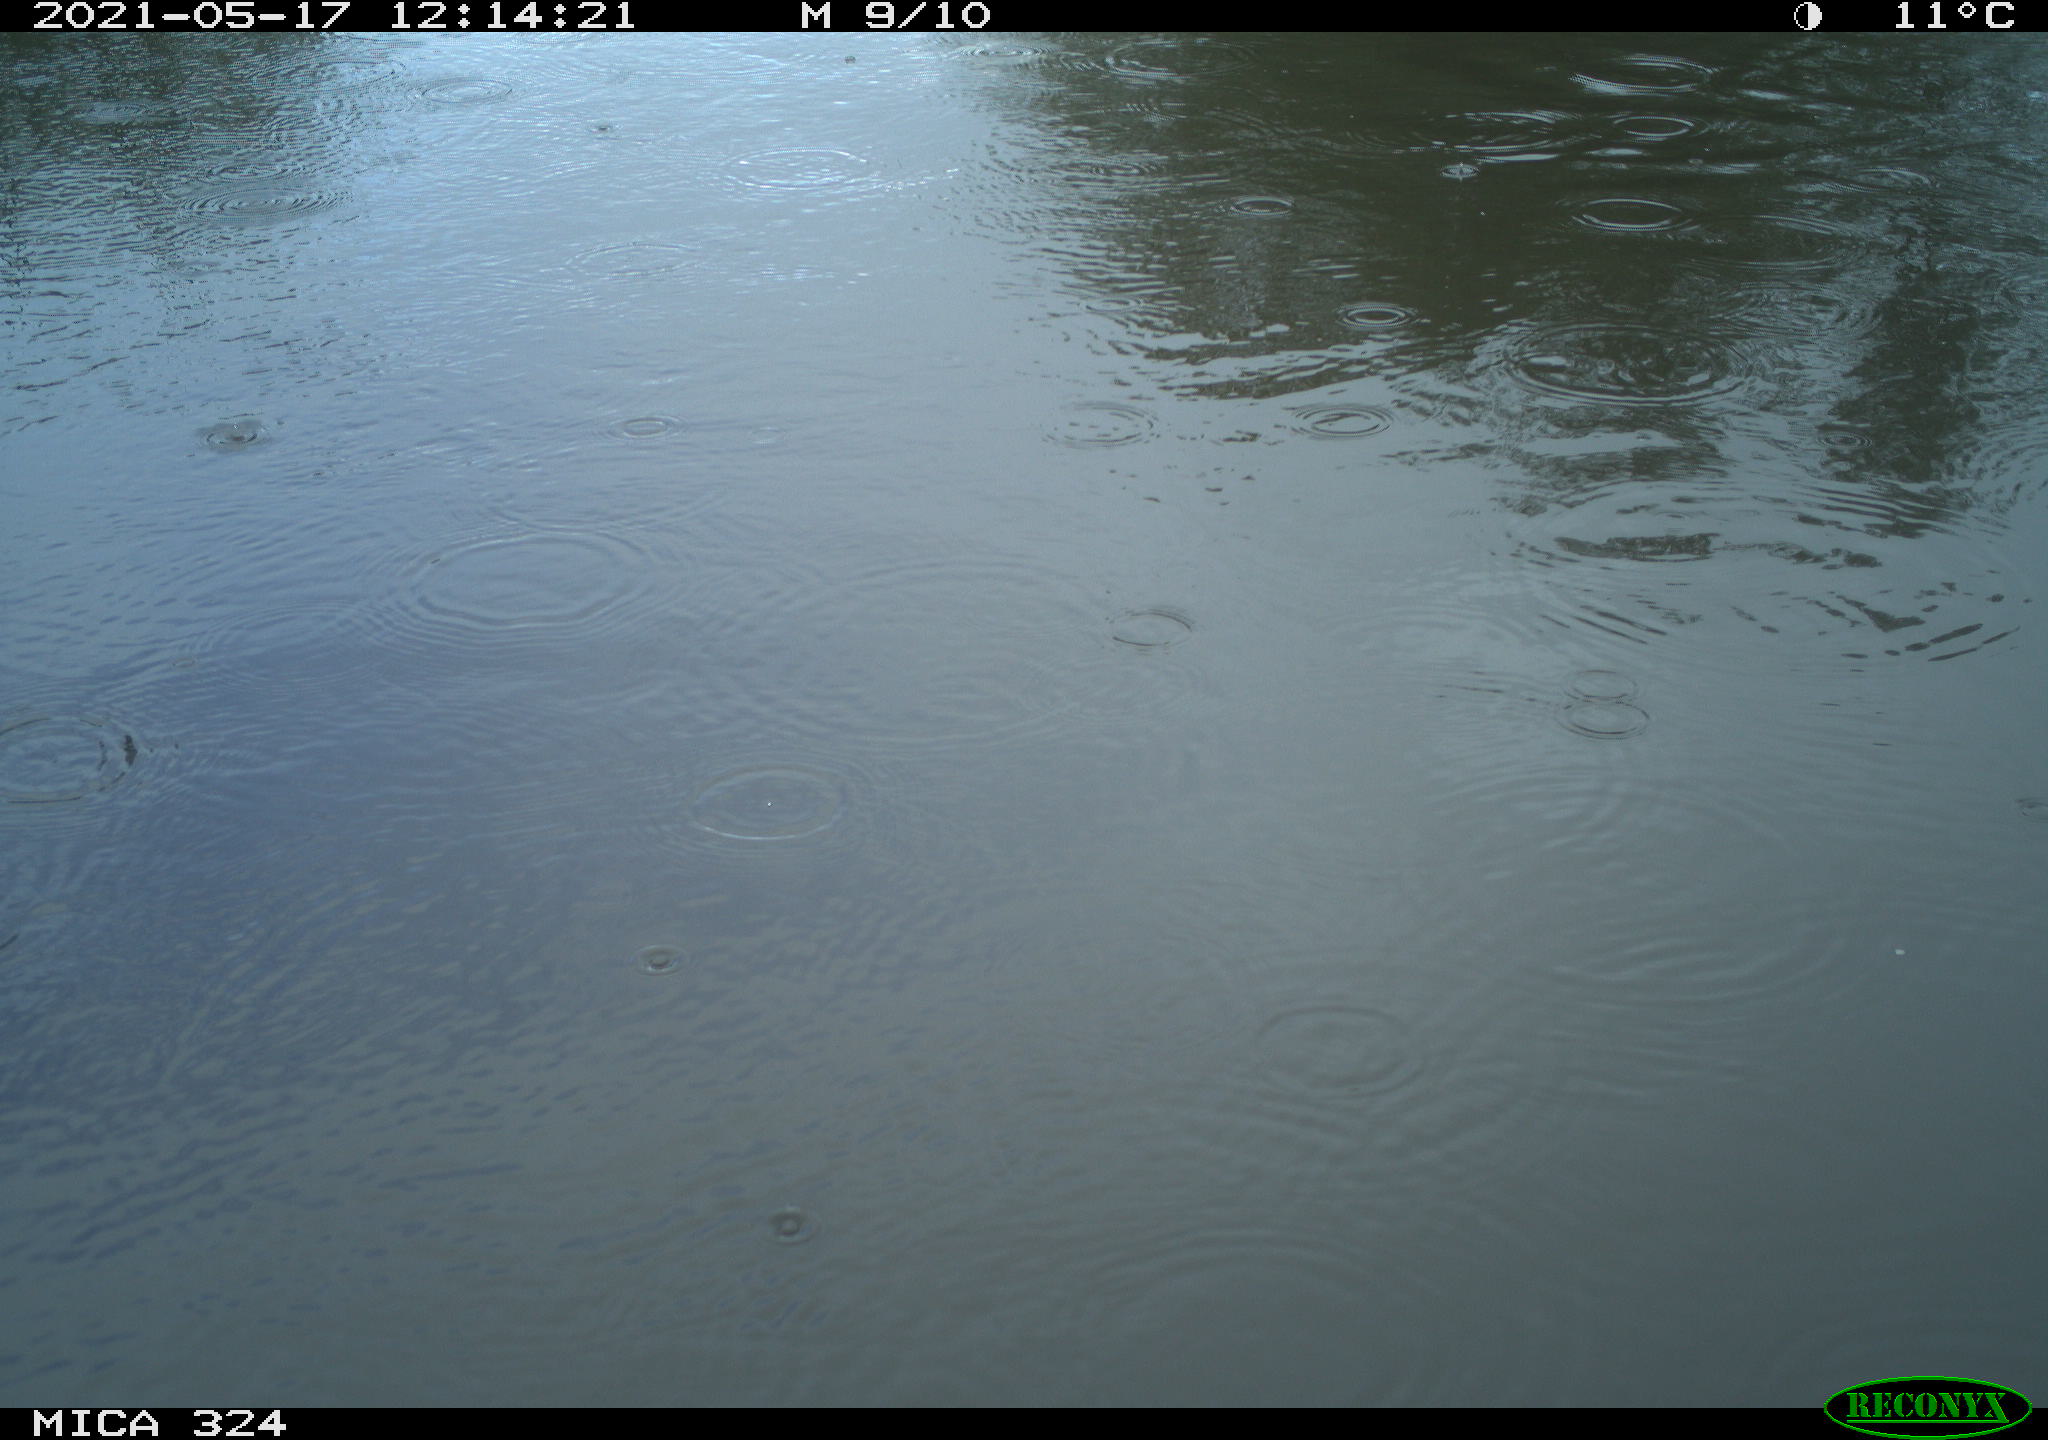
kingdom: Animalia
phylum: Chordata
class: Aves
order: Gruiformes
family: Rallidae
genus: Gallinula
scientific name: Gallinula chloropus
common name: Common moorhen
